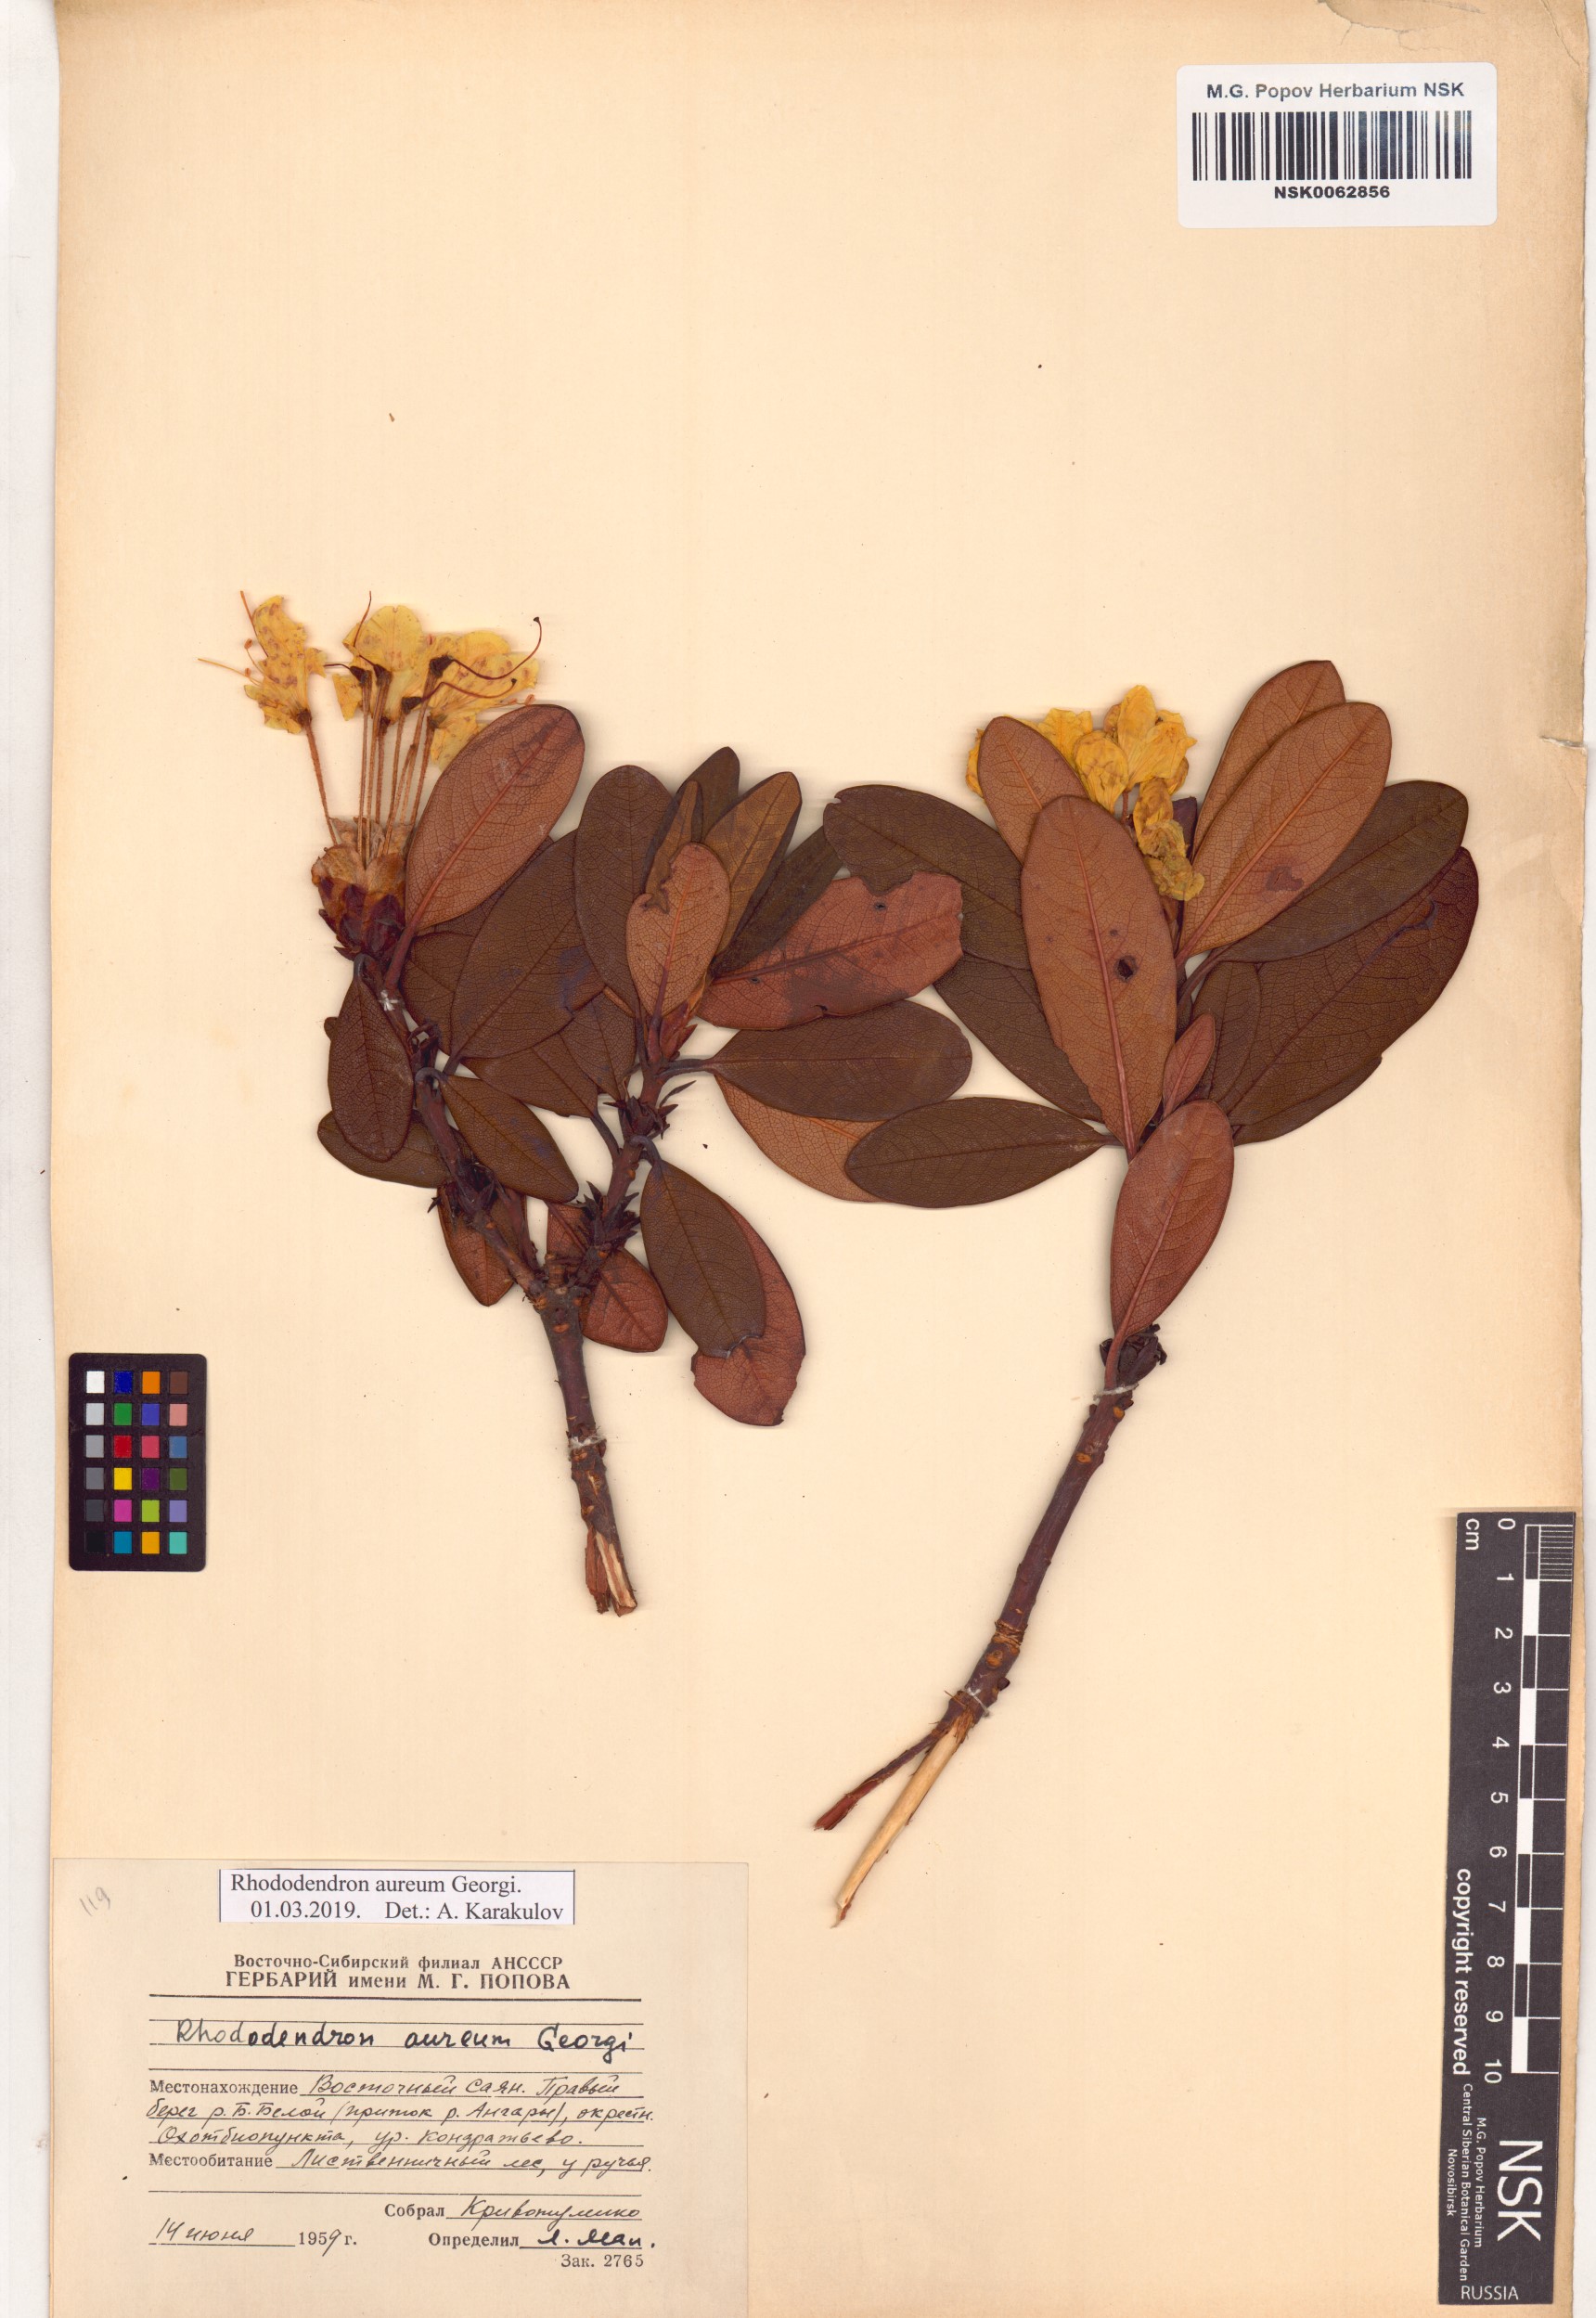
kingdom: Plantae
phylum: Tracheophyta
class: Magnoliopsida
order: Ericales
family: Ericaceae
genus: Rhododendron
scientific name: Rhododendron aureum
